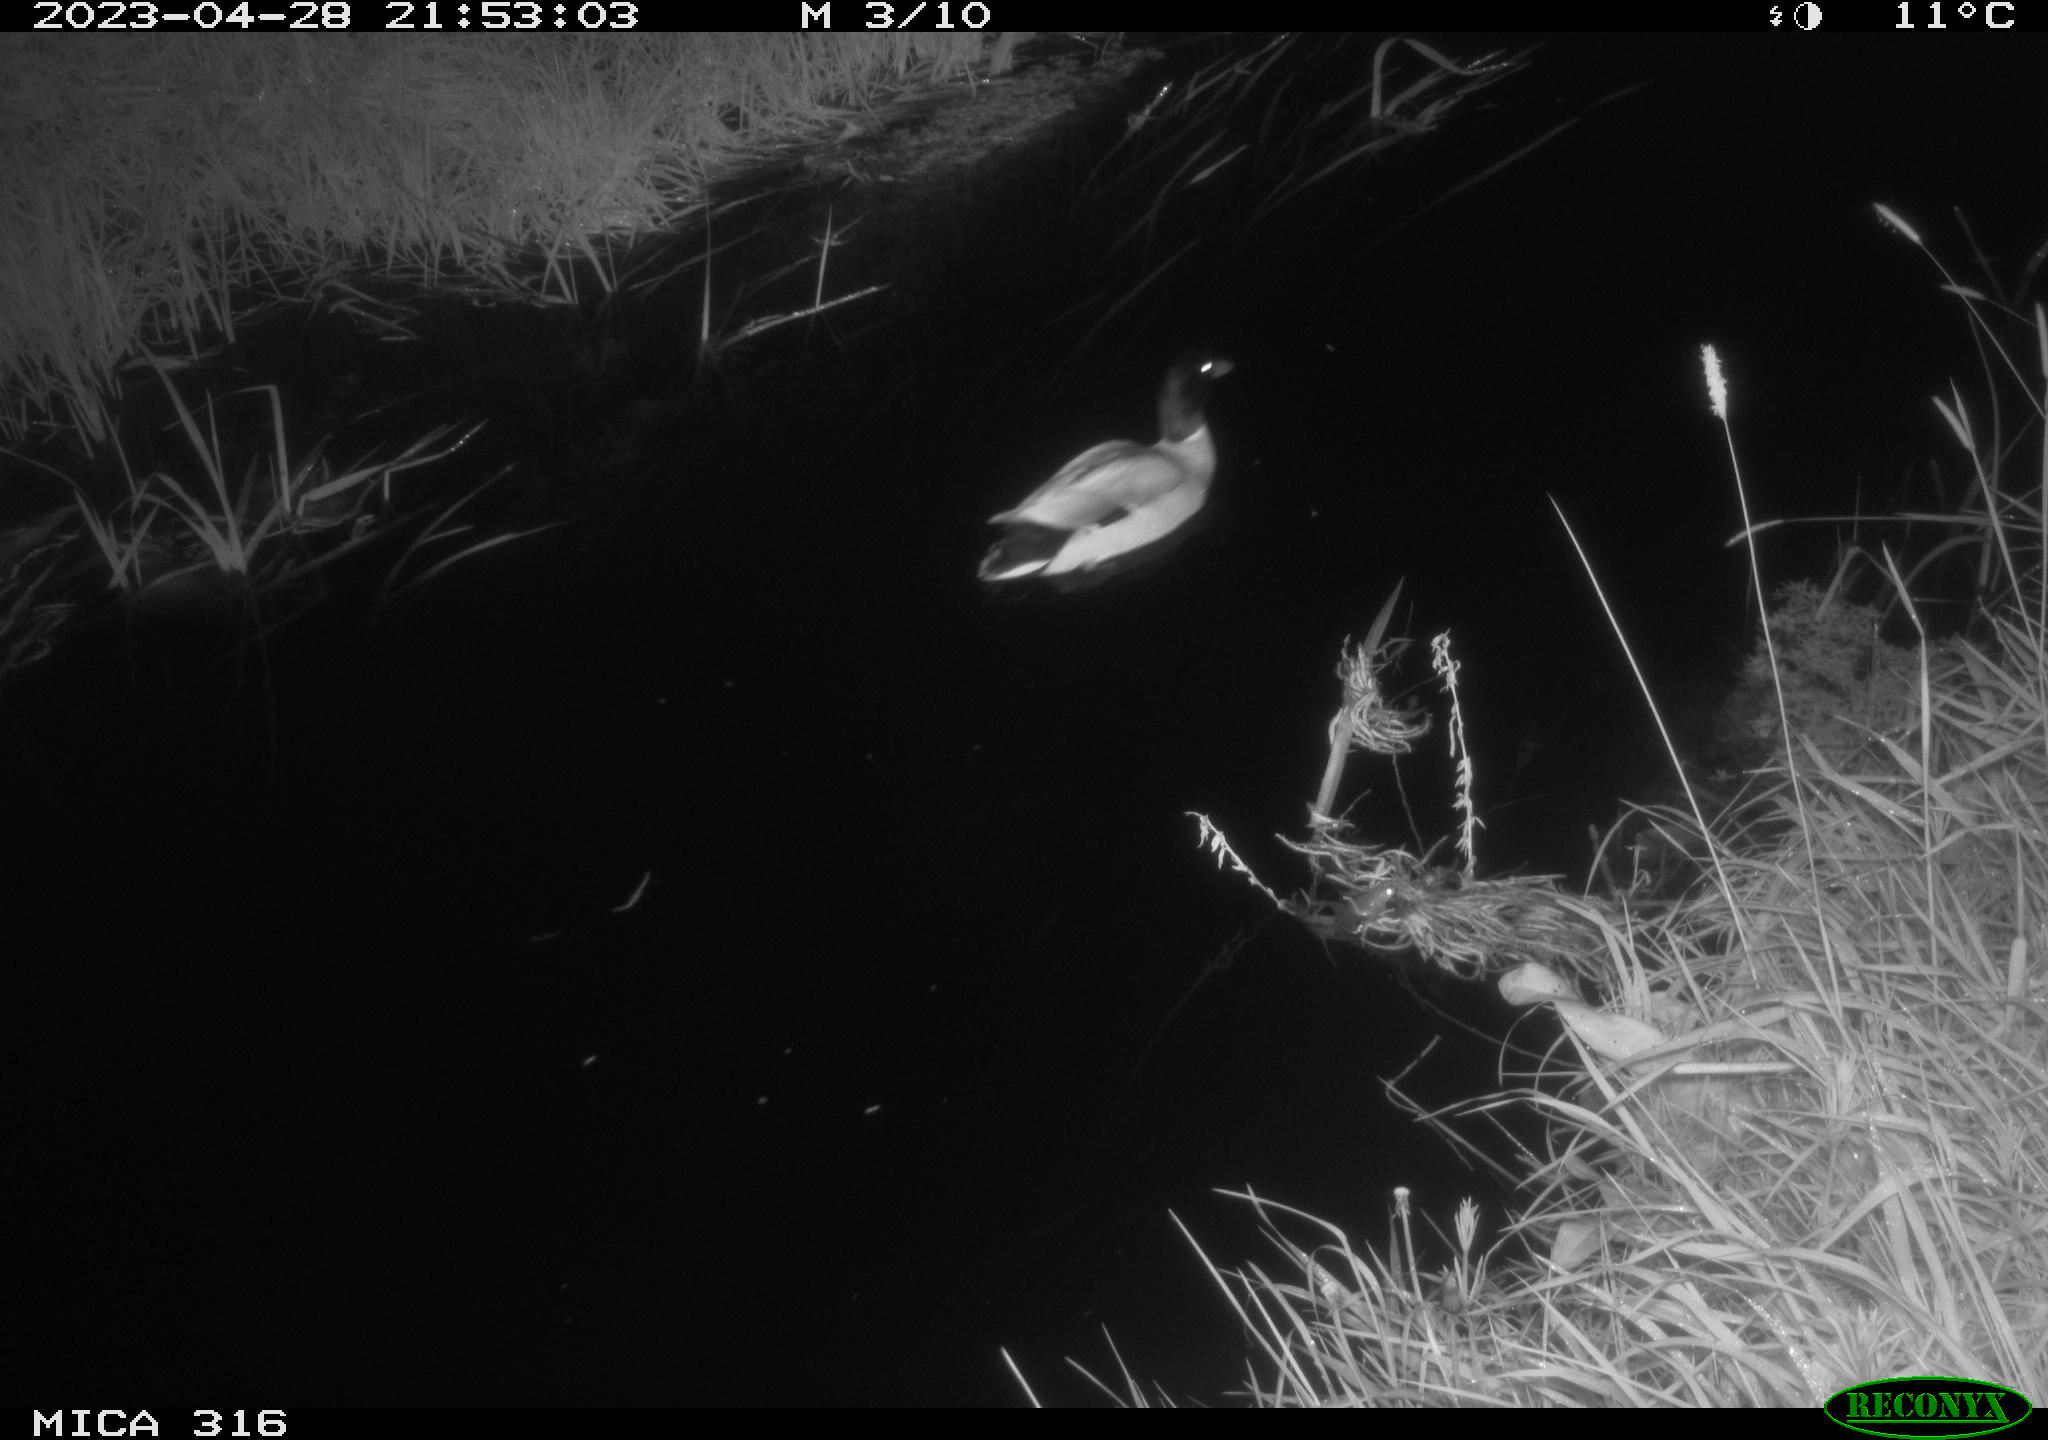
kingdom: Animalia
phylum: Chordata
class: Aves
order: Anseriformes
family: Anatidae
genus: Anas
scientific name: Anas
